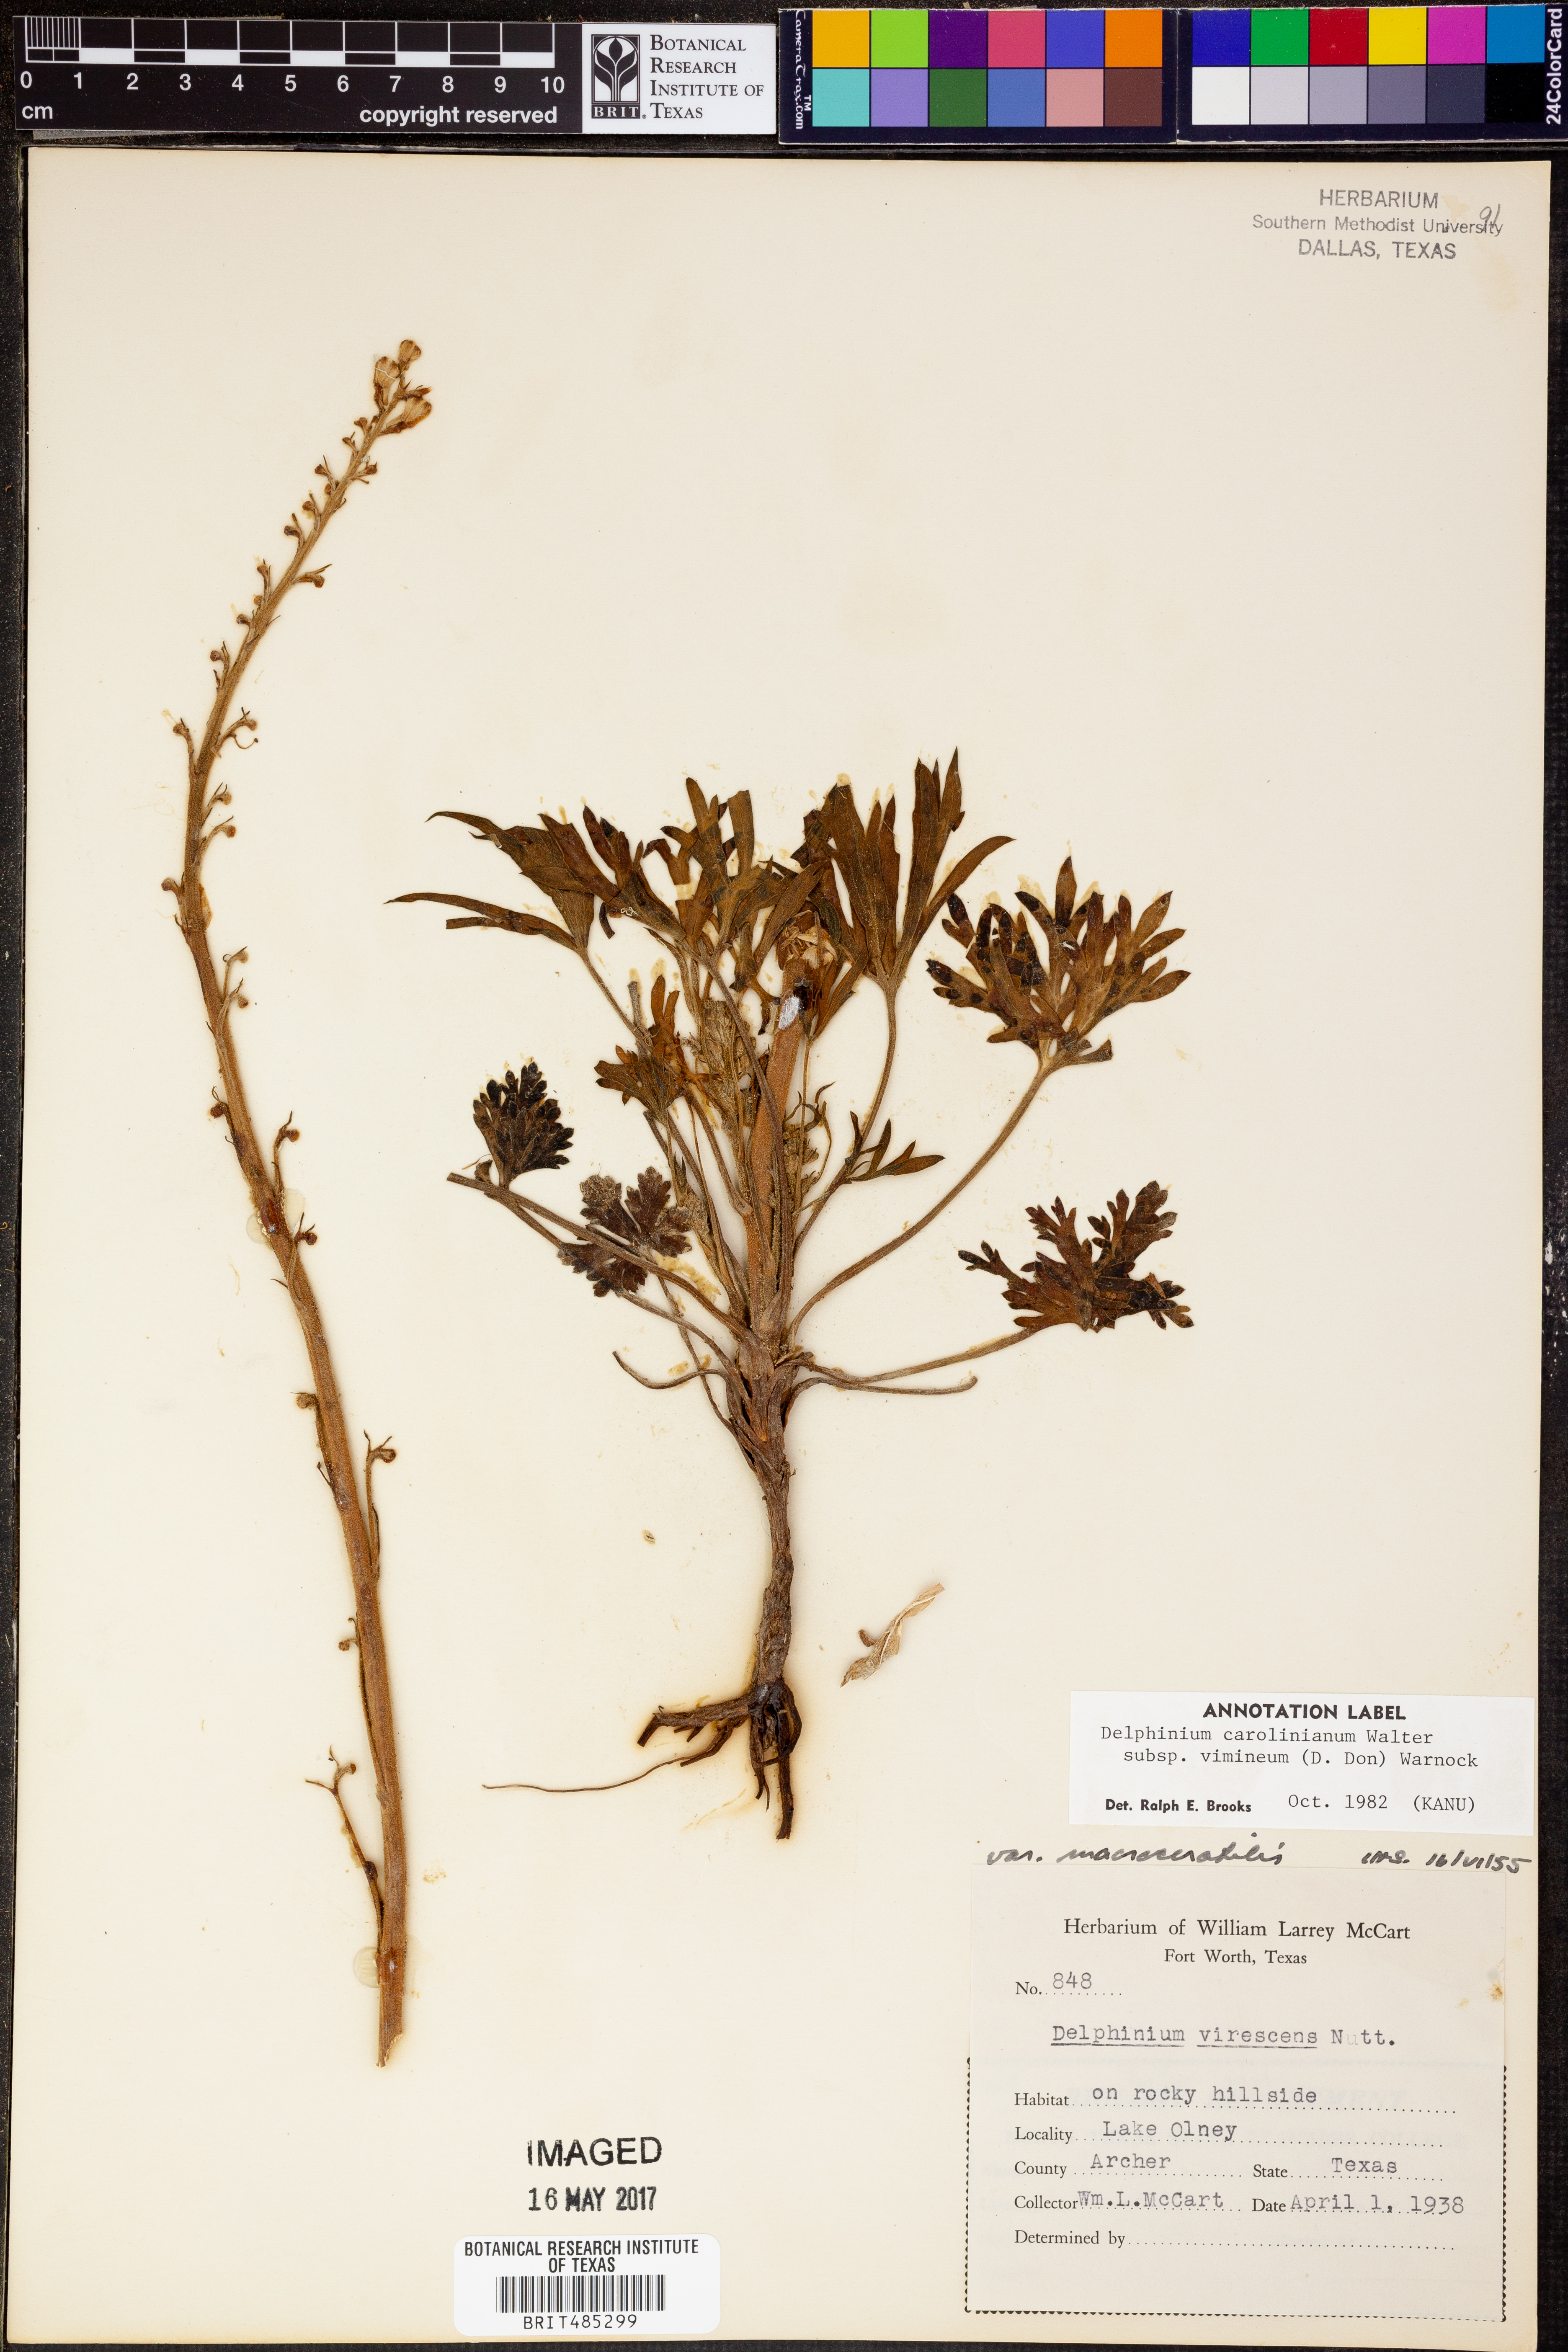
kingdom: Plantae
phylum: Tracheophyta
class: Magnoliopsida
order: Ranunculales
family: Ranunculaceae
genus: Delphinium
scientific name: Delphinium carolinianum
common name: Carolina larkspur
